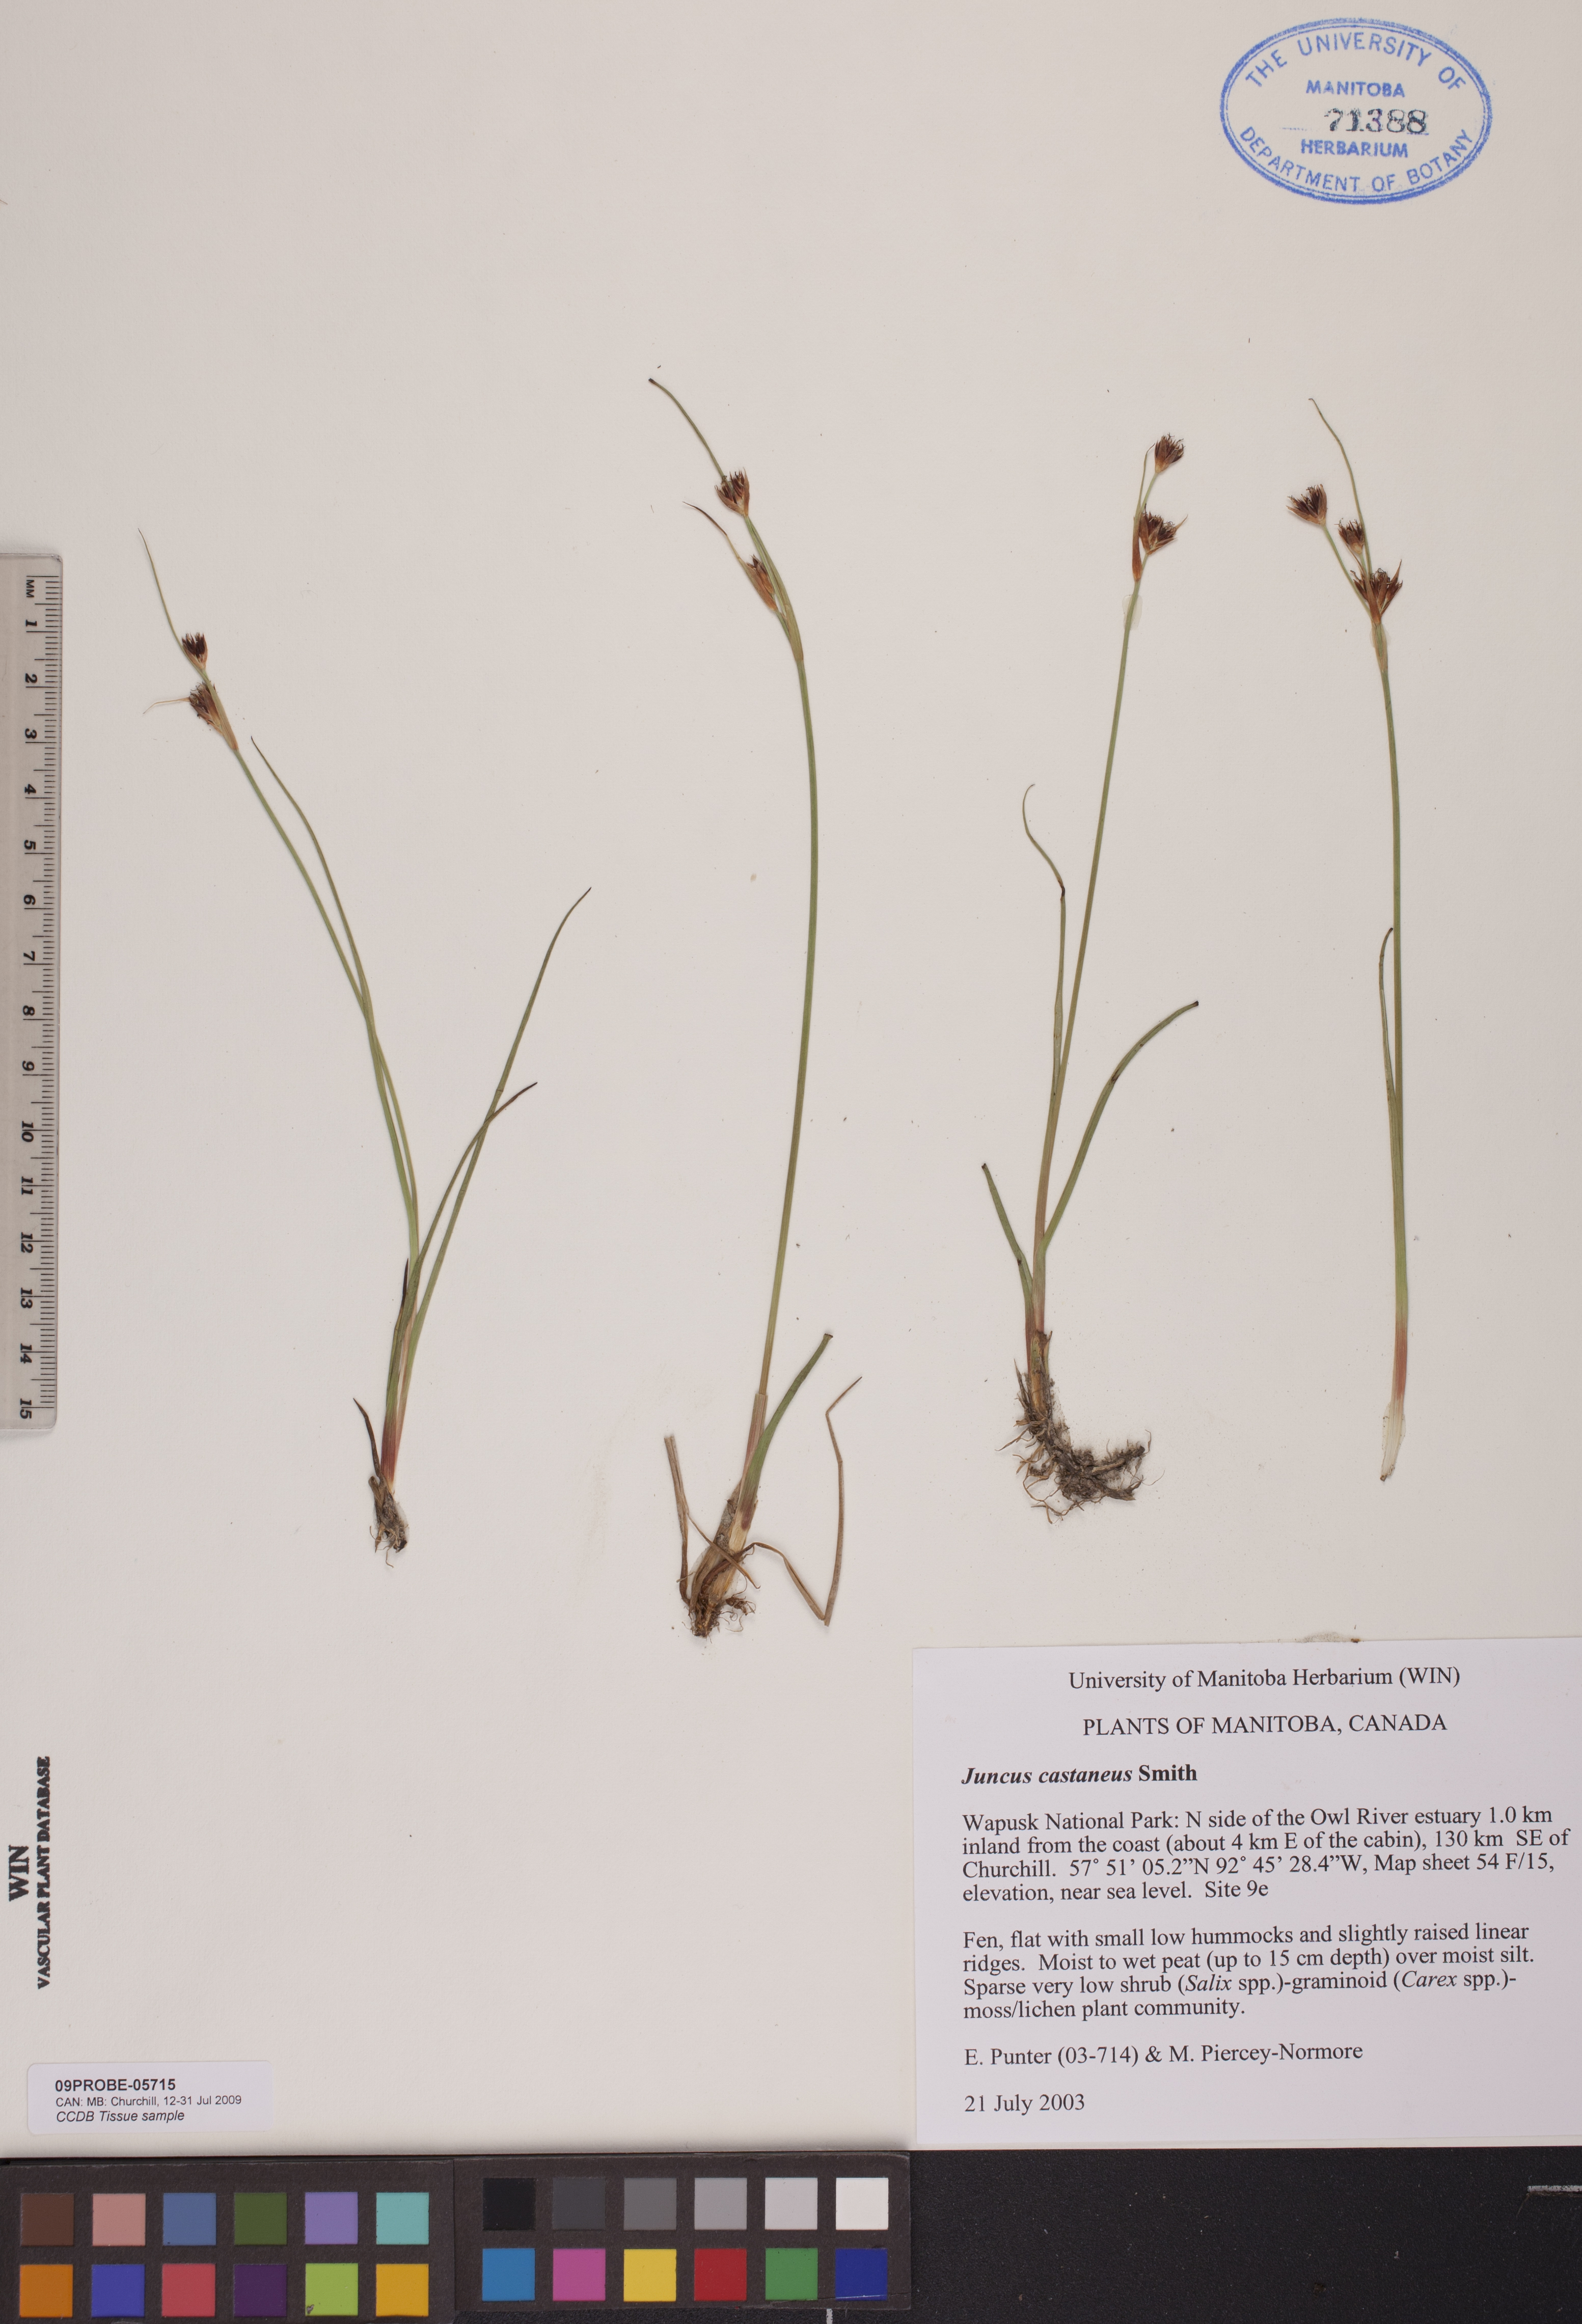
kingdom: Plantae
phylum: Tracheophyta
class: Liliopsida
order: Poales
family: Juncaceae
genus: Juncus
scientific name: Juncus castaneus
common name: Chestnut rush
